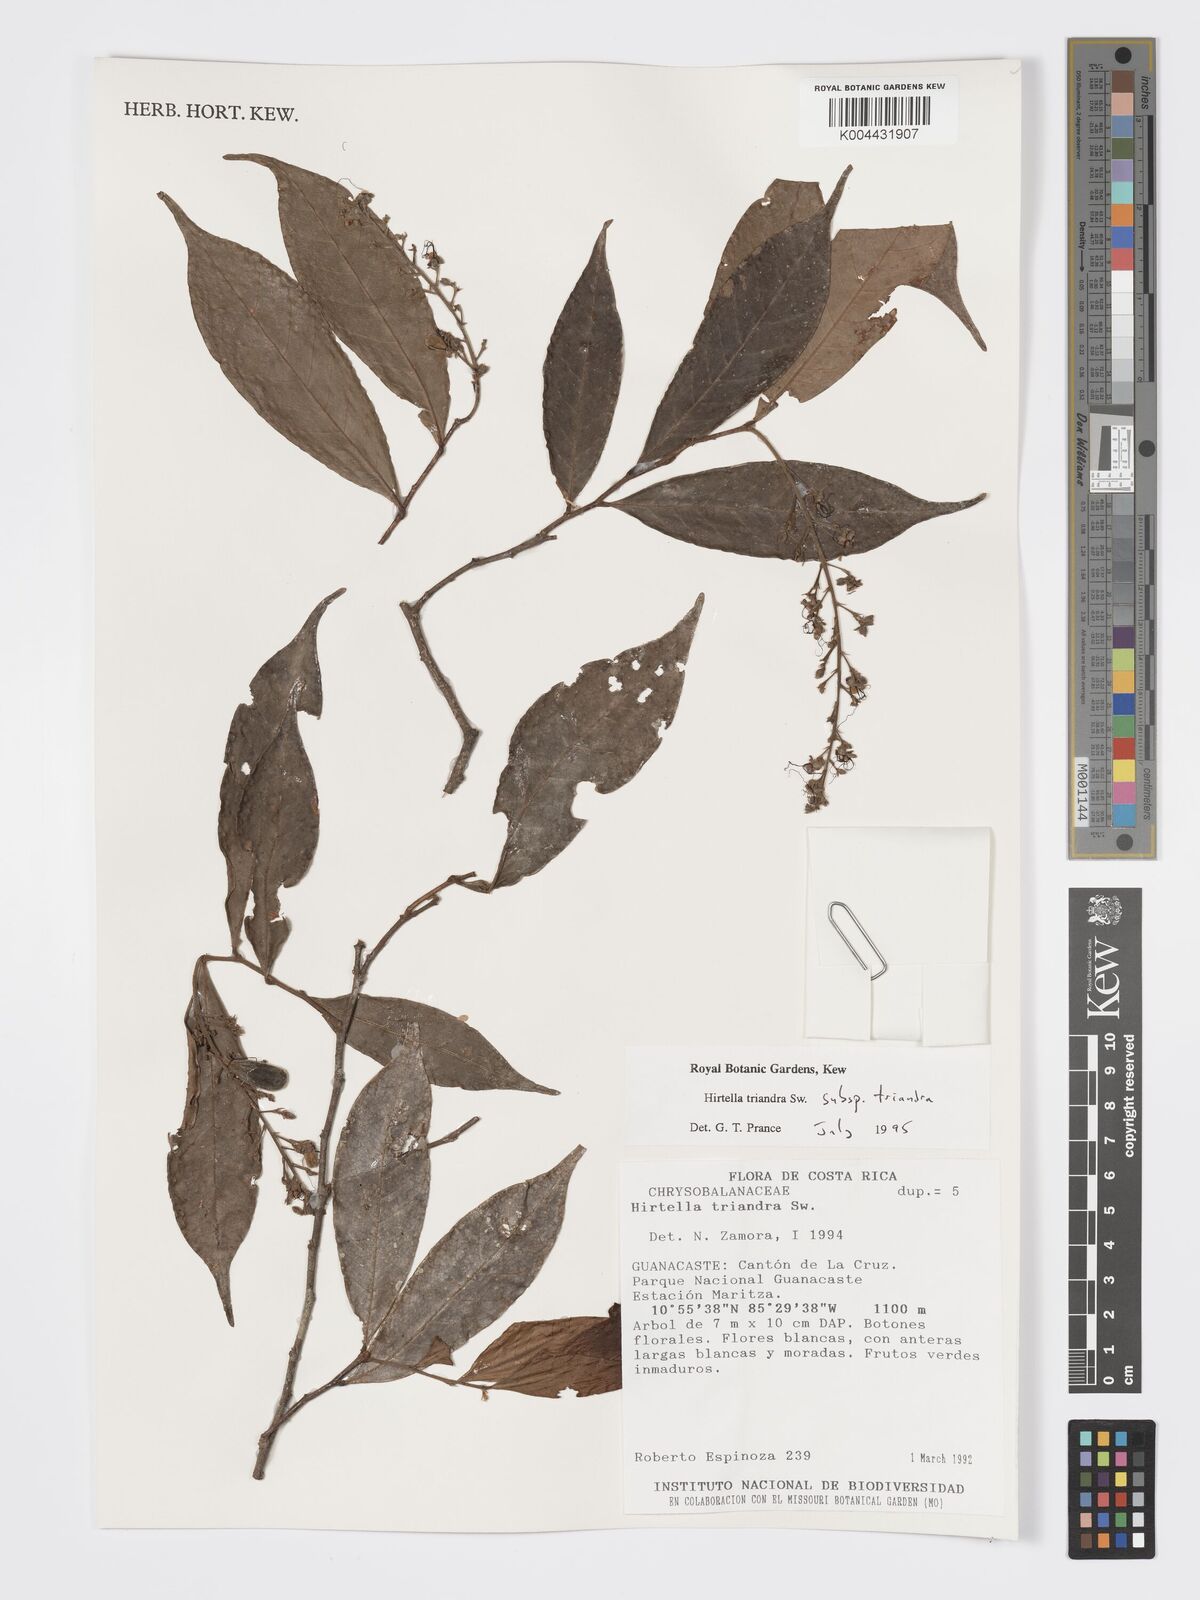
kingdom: Plantae
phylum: Tracheophyta
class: Magnoliopsida
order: Malpighiales
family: Chrysobalanaceae
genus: Hirtella
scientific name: Hirtella triandra
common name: Hairy plum
